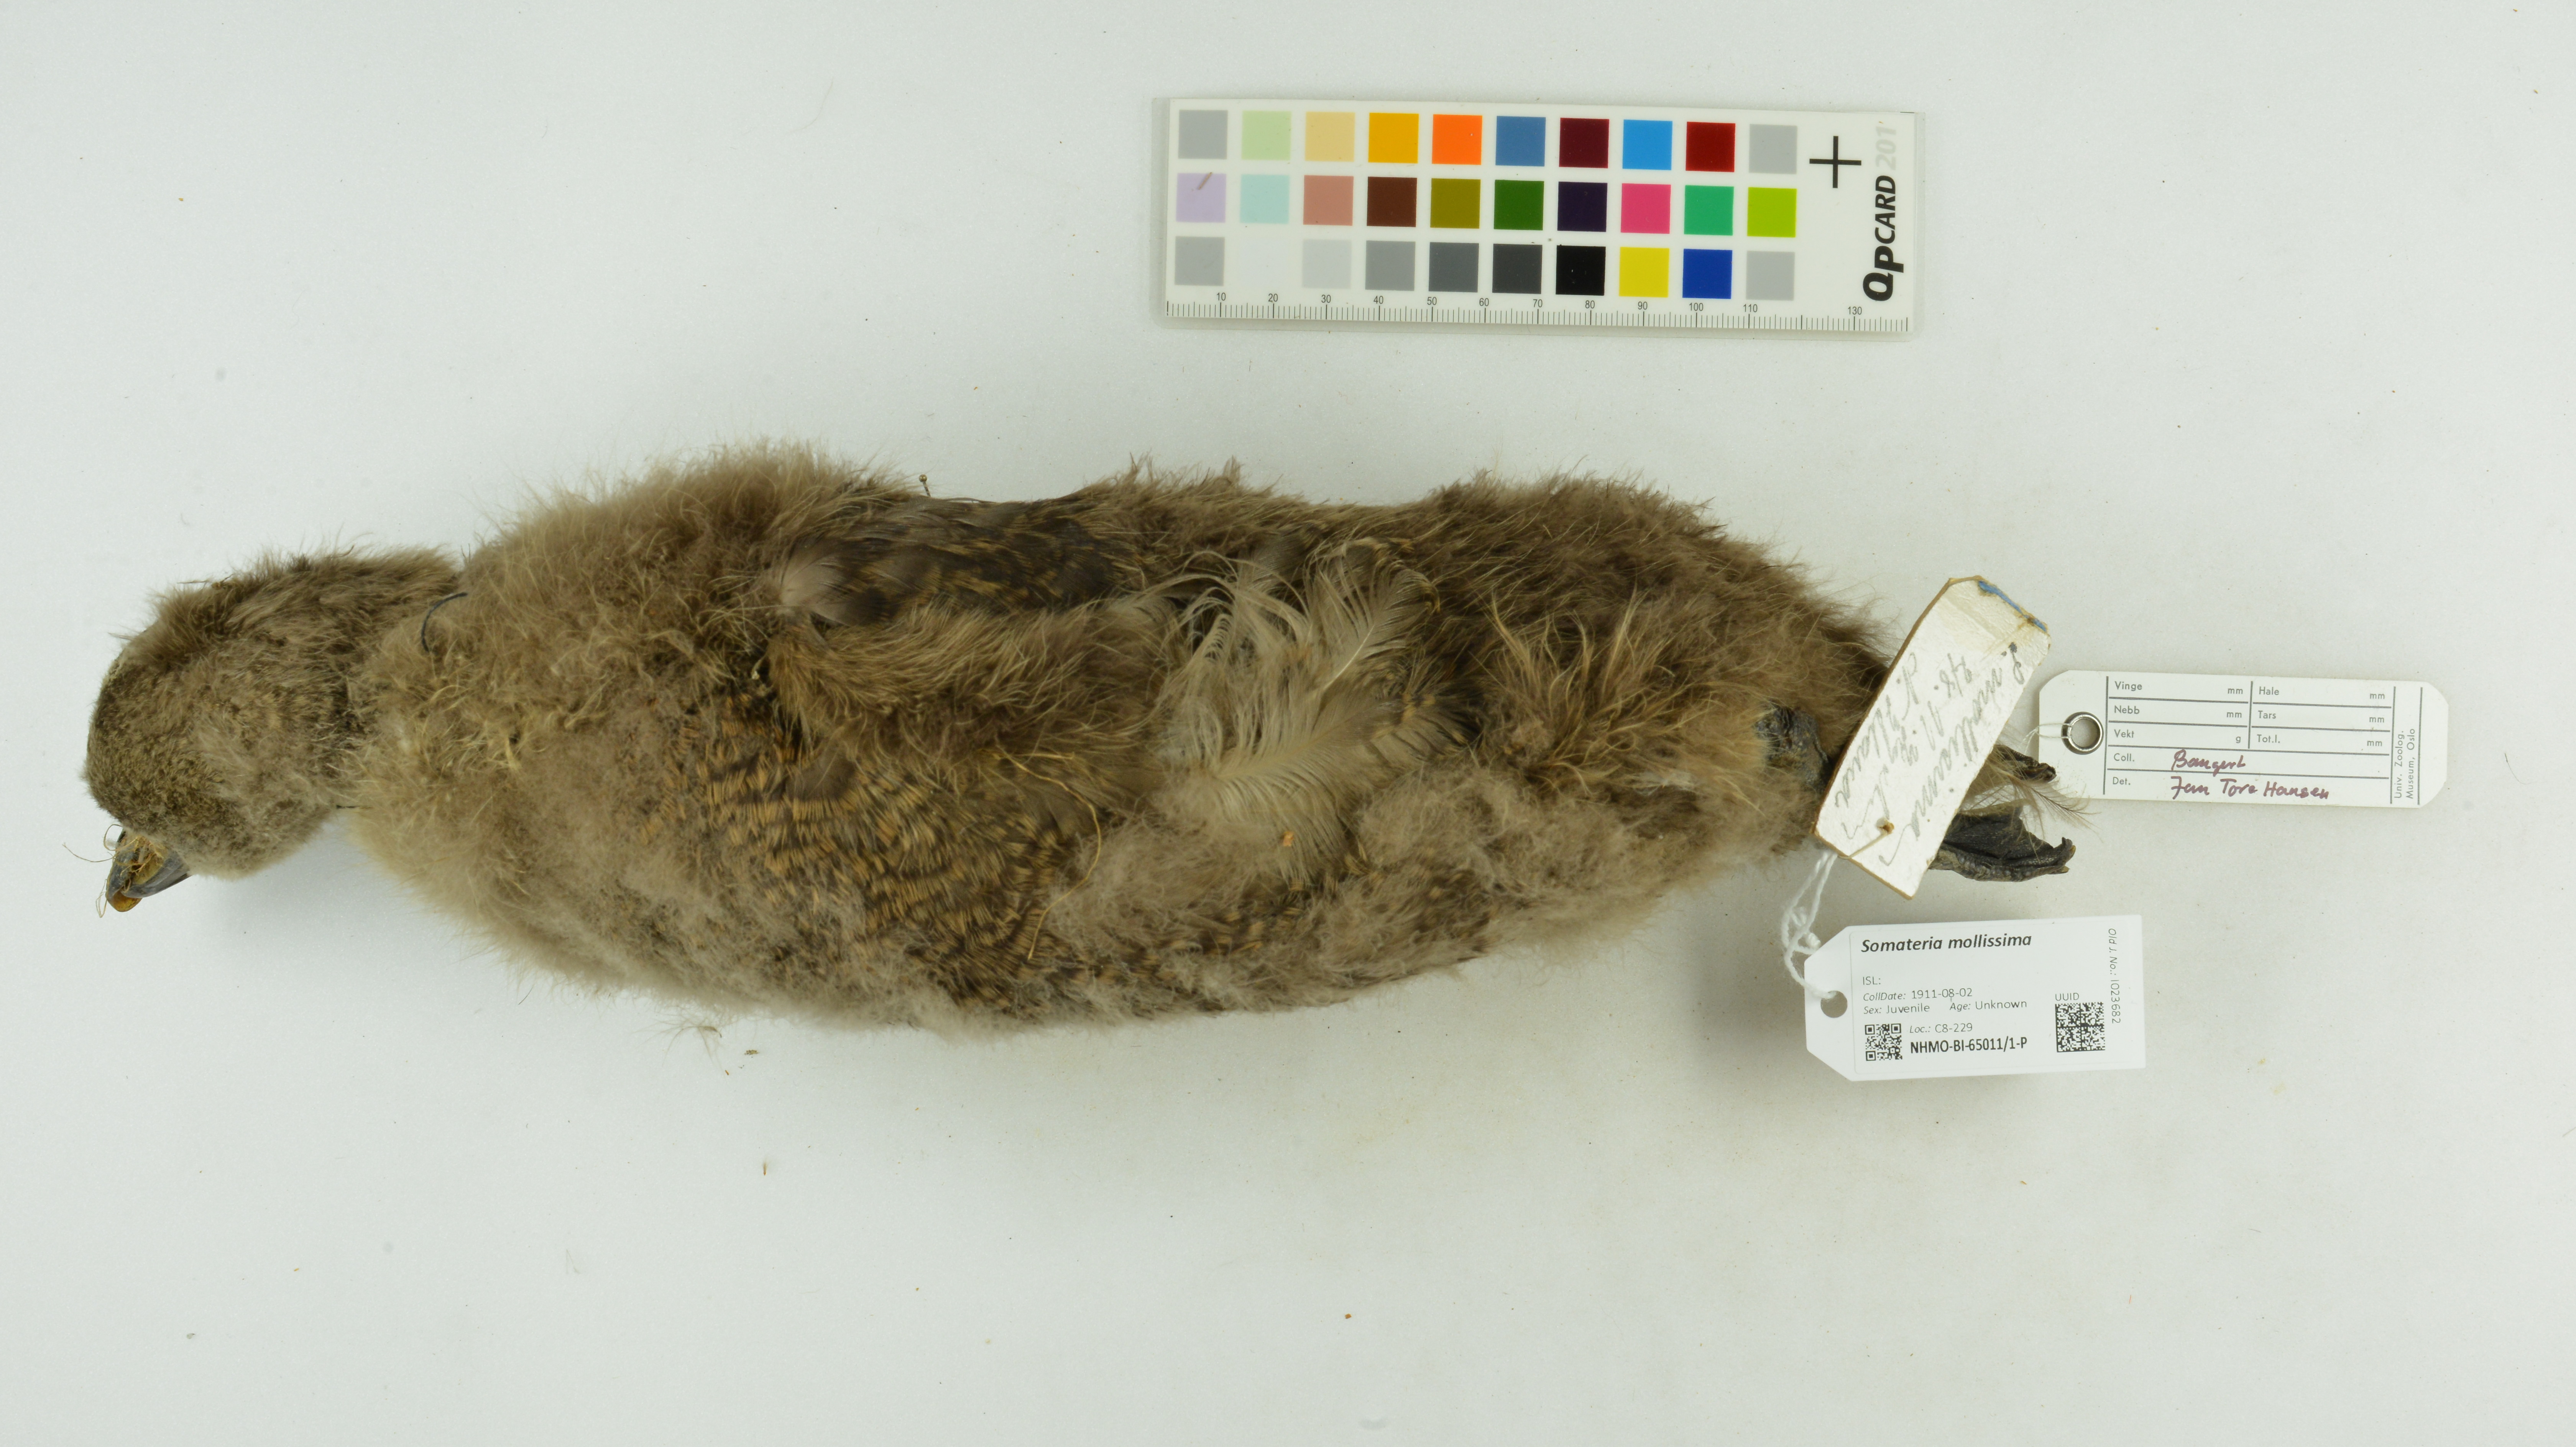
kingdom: Animalia
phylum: Chordata
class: Aves
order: Anseriformes
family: Anatidae
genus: Somateria
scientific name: Somateria mollissima
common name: Common eider
